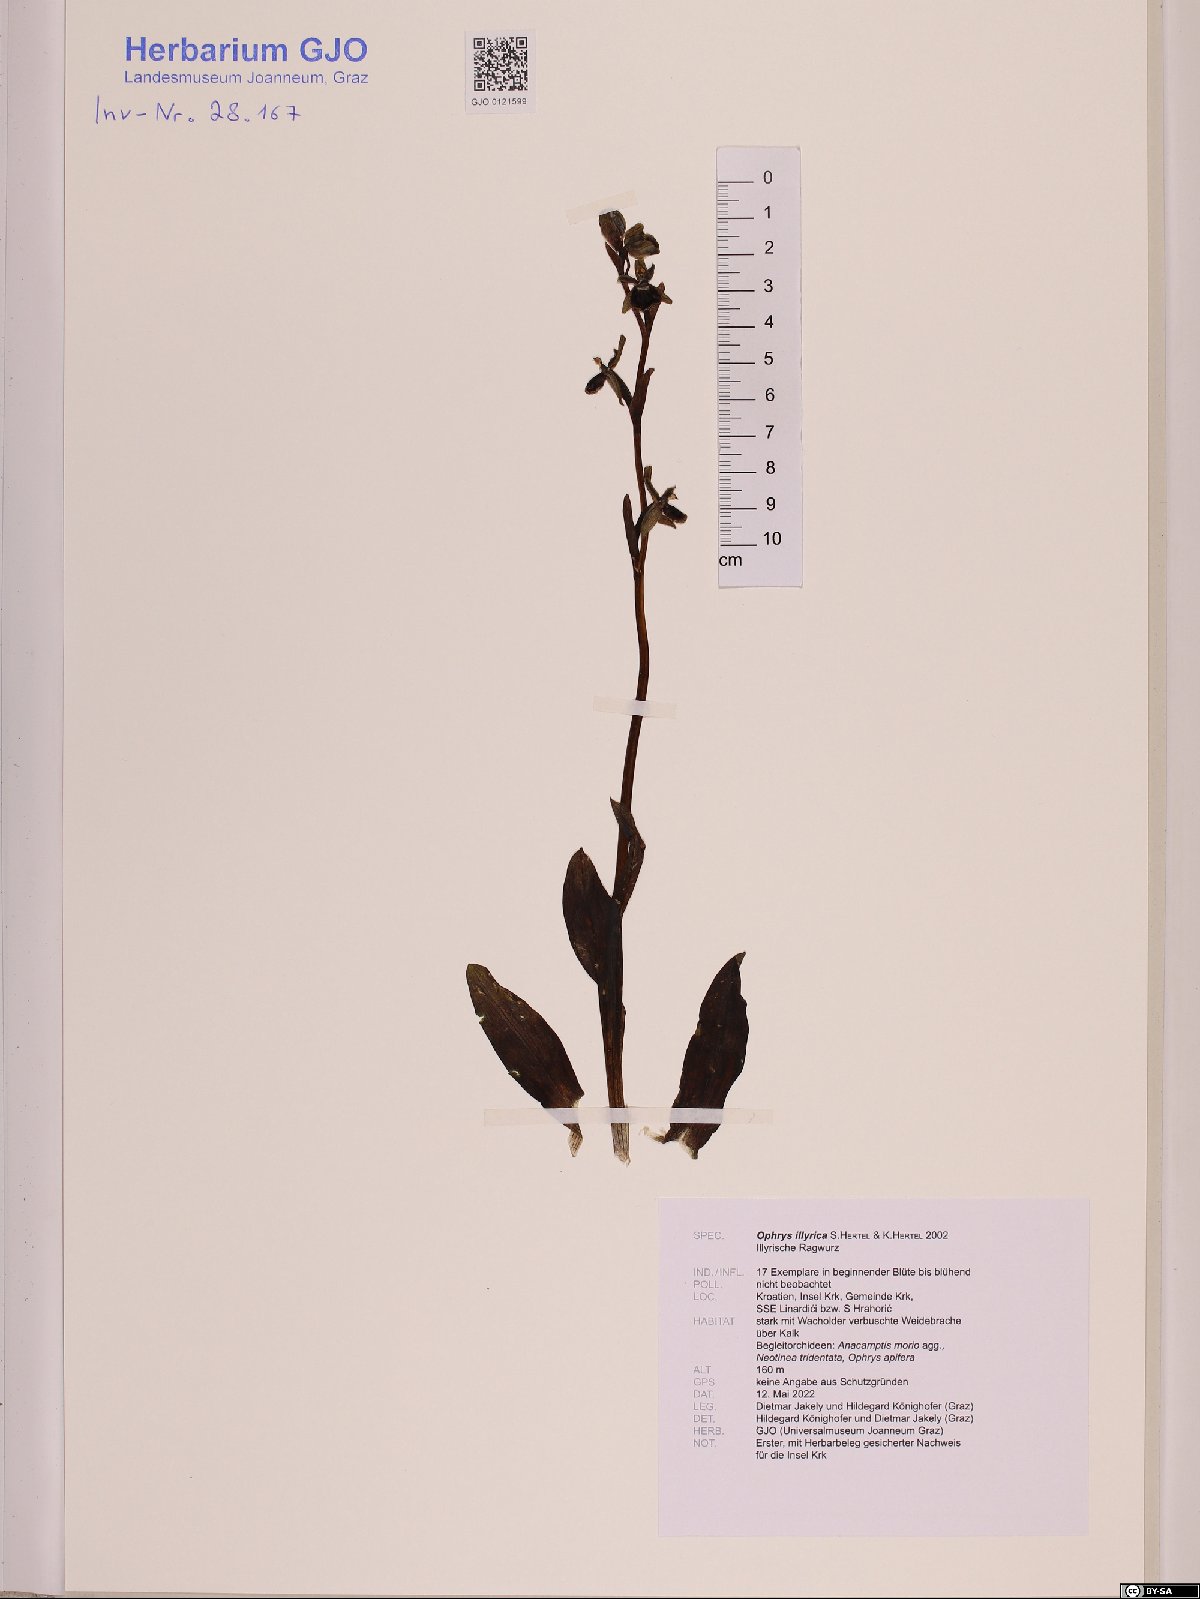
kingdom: Plantae
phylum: Tracheophyta
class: Liliopsida
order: Asparagales
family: Orchidaceae
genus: Ophrys
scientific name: Ophrys sphegodes
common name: Early spider-orchid
